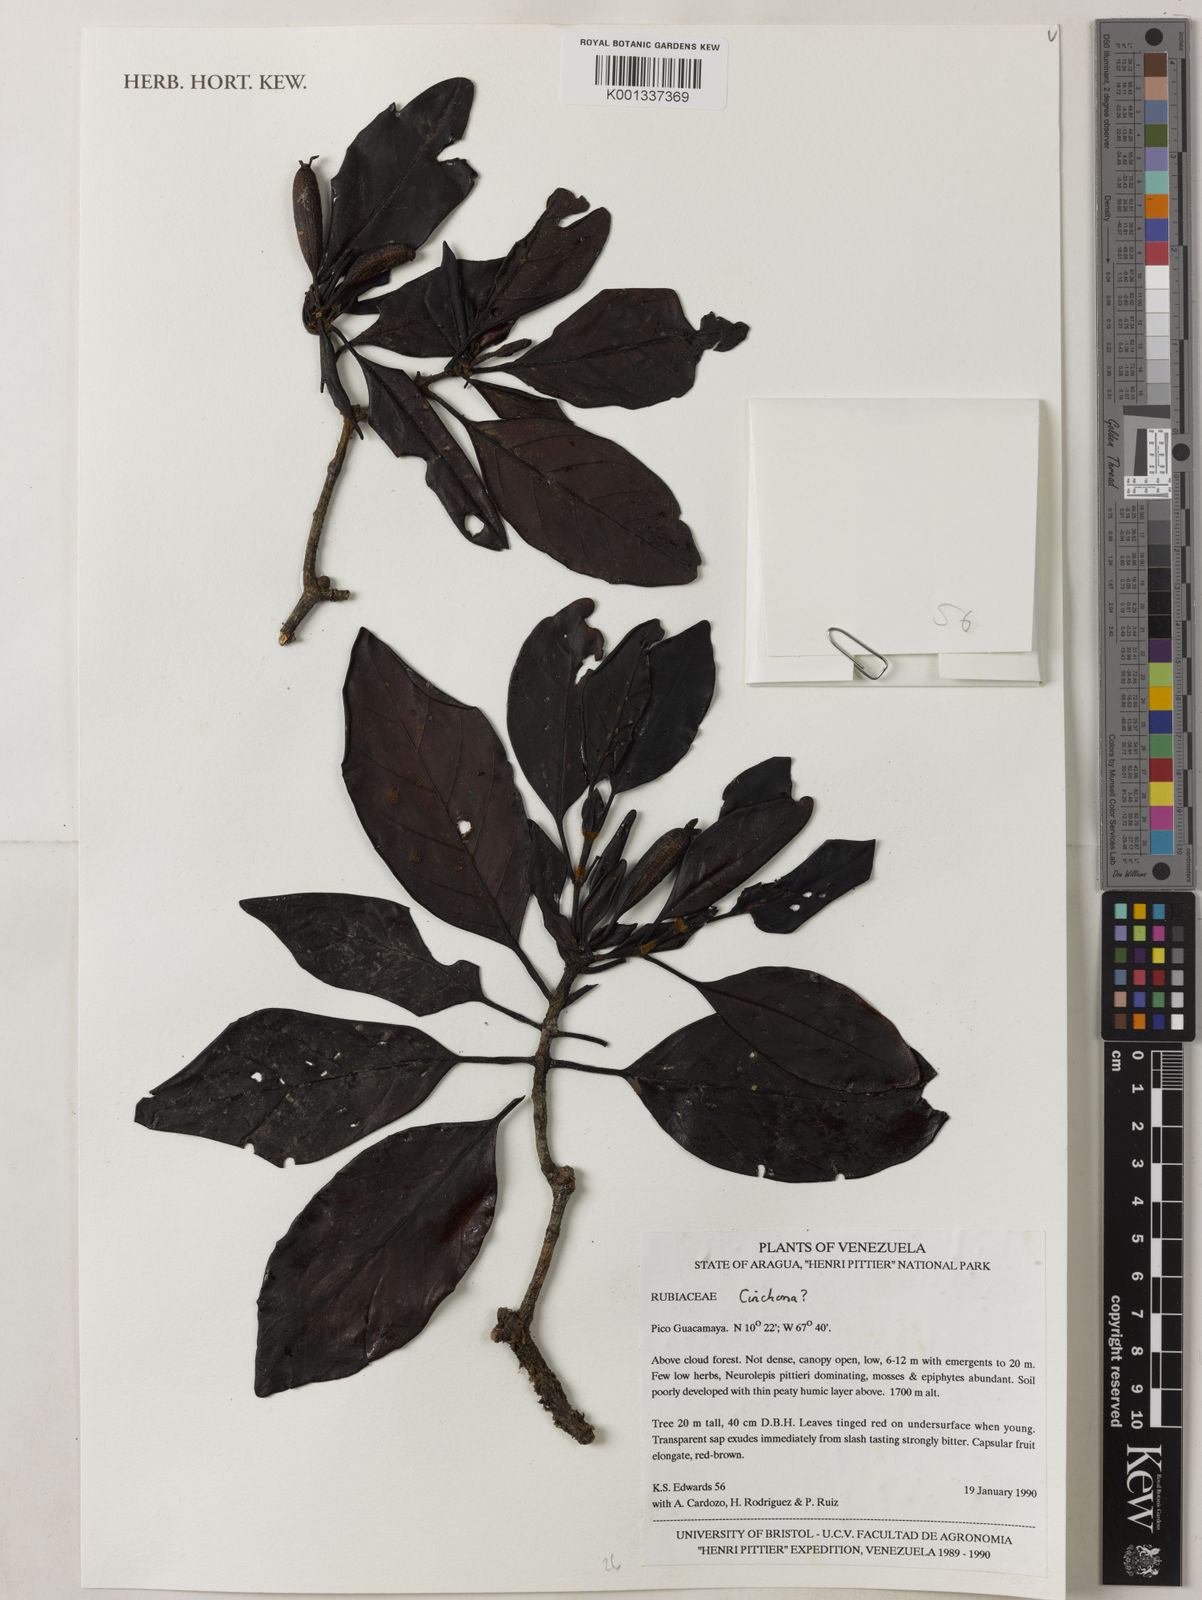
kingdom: Plantae
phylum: Tracheophyta
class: Magnoliopsida
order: Gentianales
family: Rubiaceae
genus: Cinchona
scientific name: Cinchona
